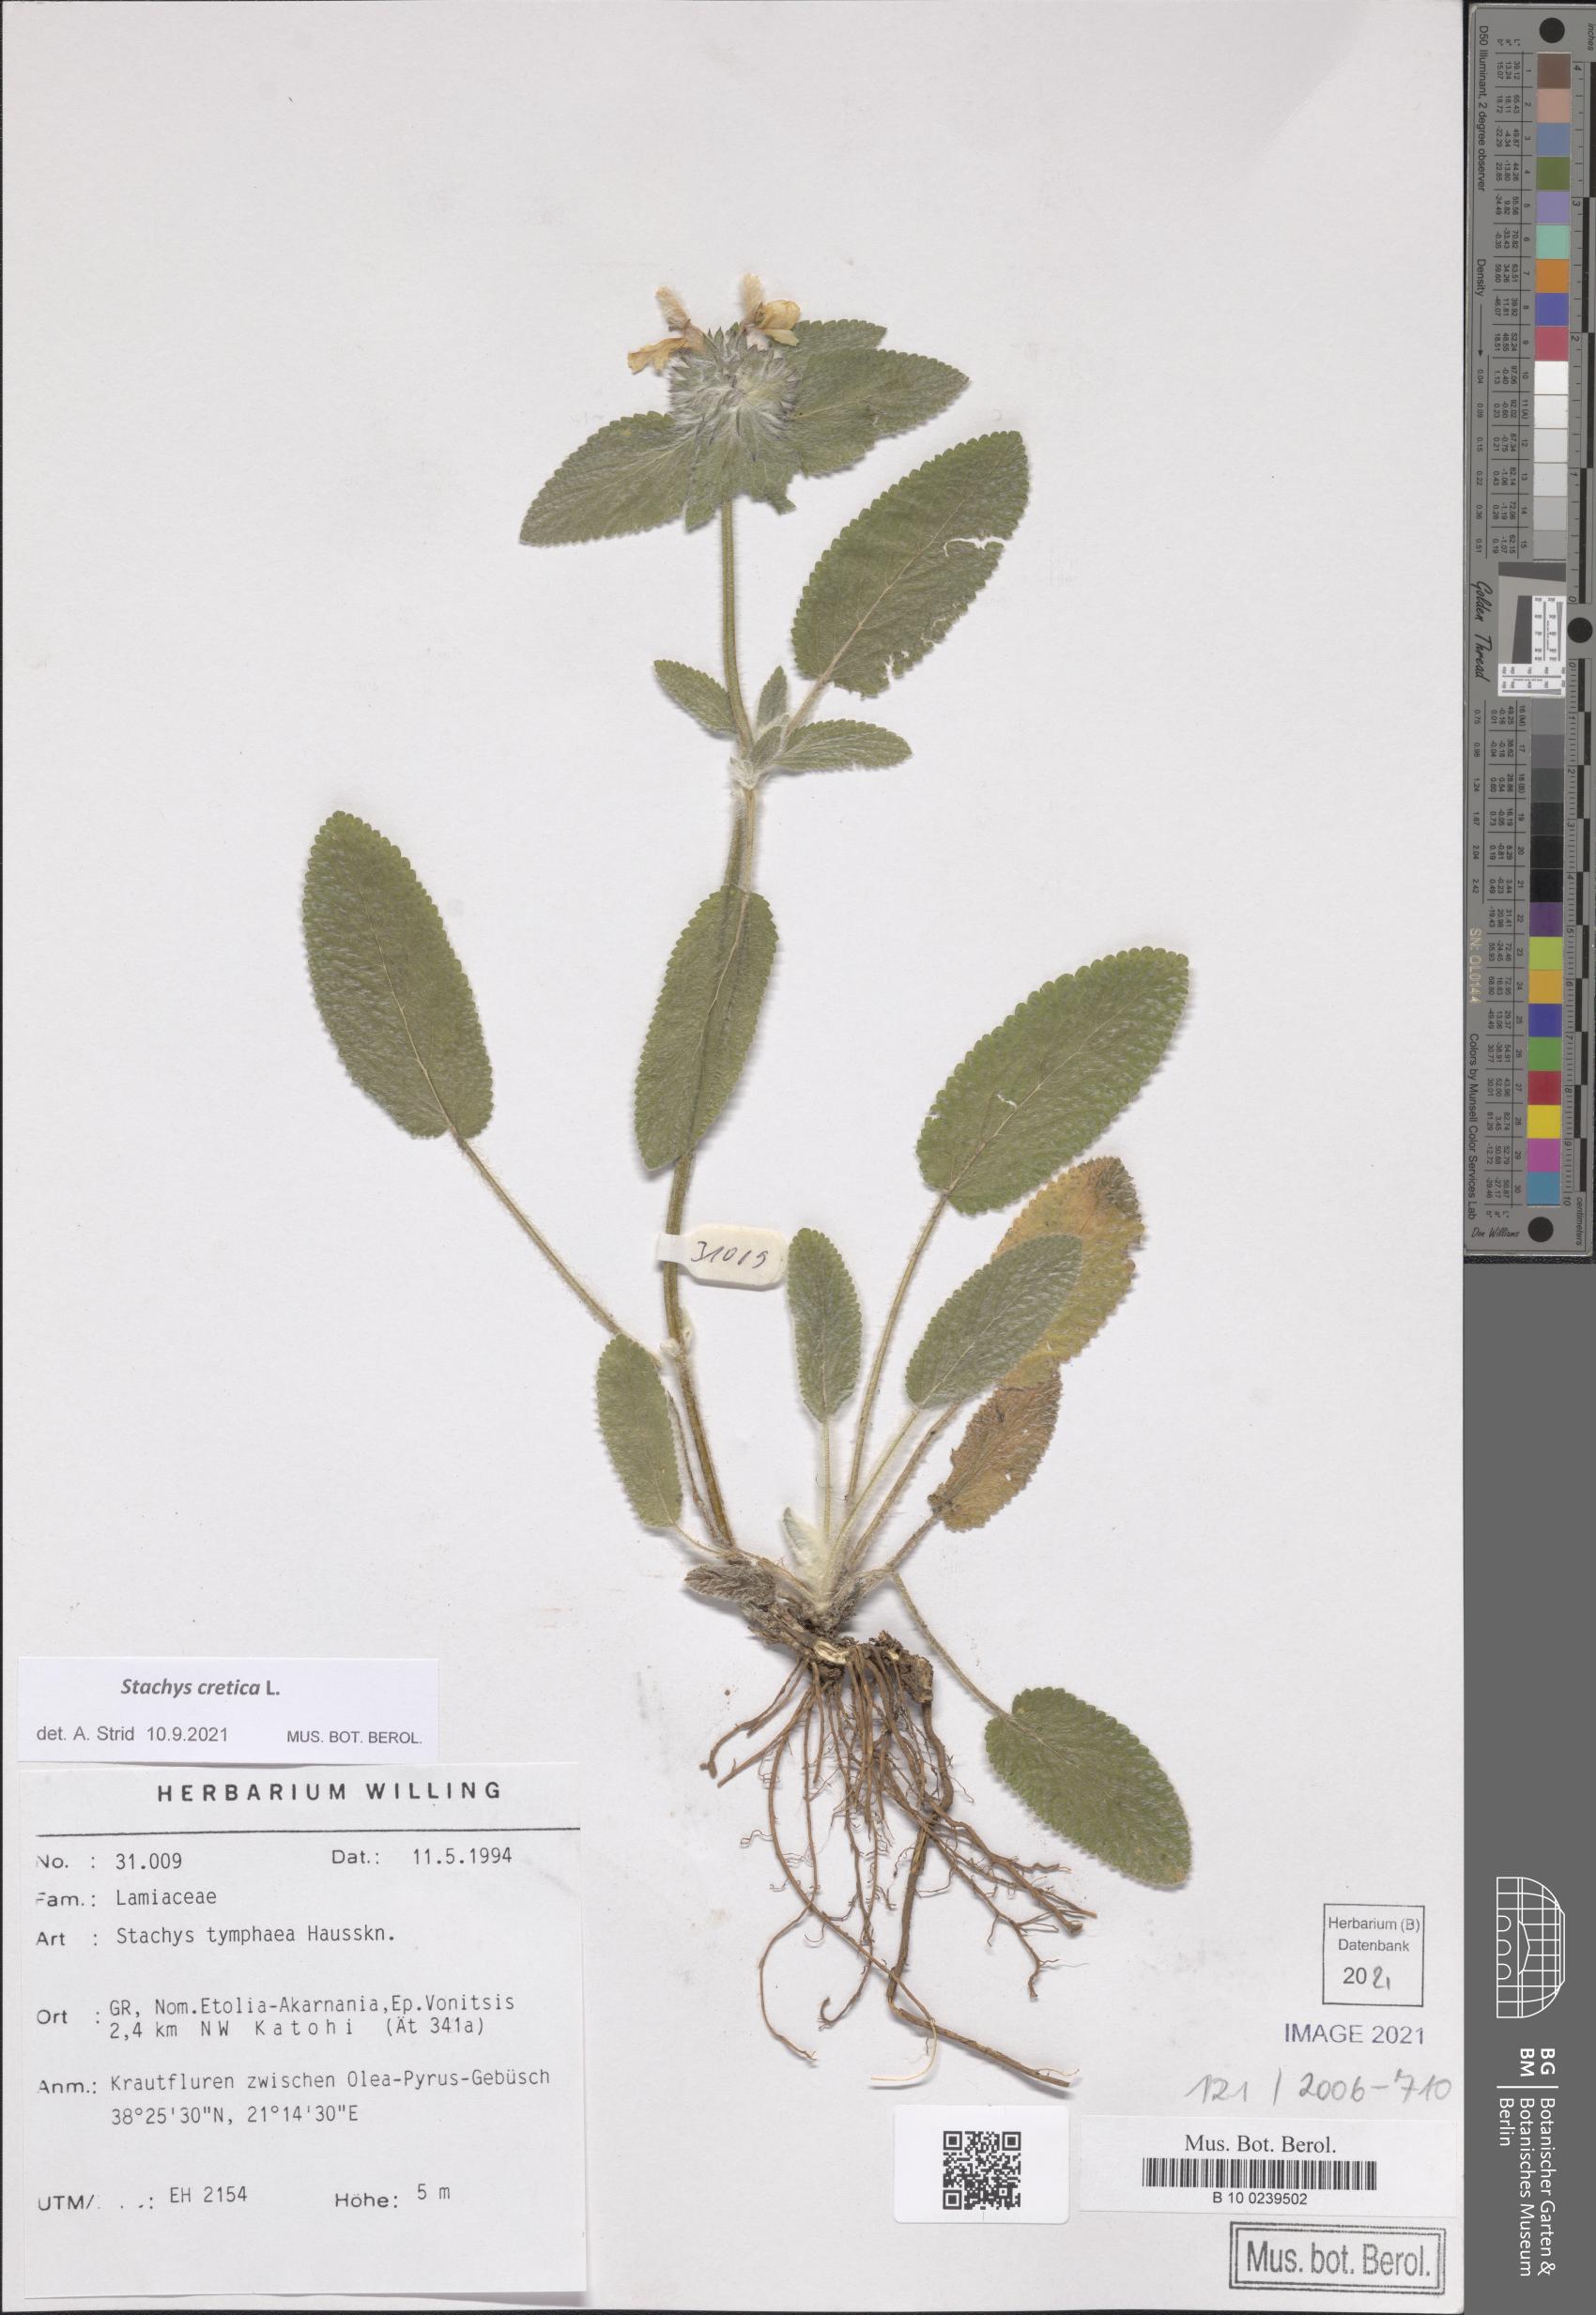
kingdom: Plantae
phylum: Tracheophyta
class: Magnoliopsida
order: Lamiales
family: Lamiaceae
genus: Stachys
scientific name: Stachys cretica
